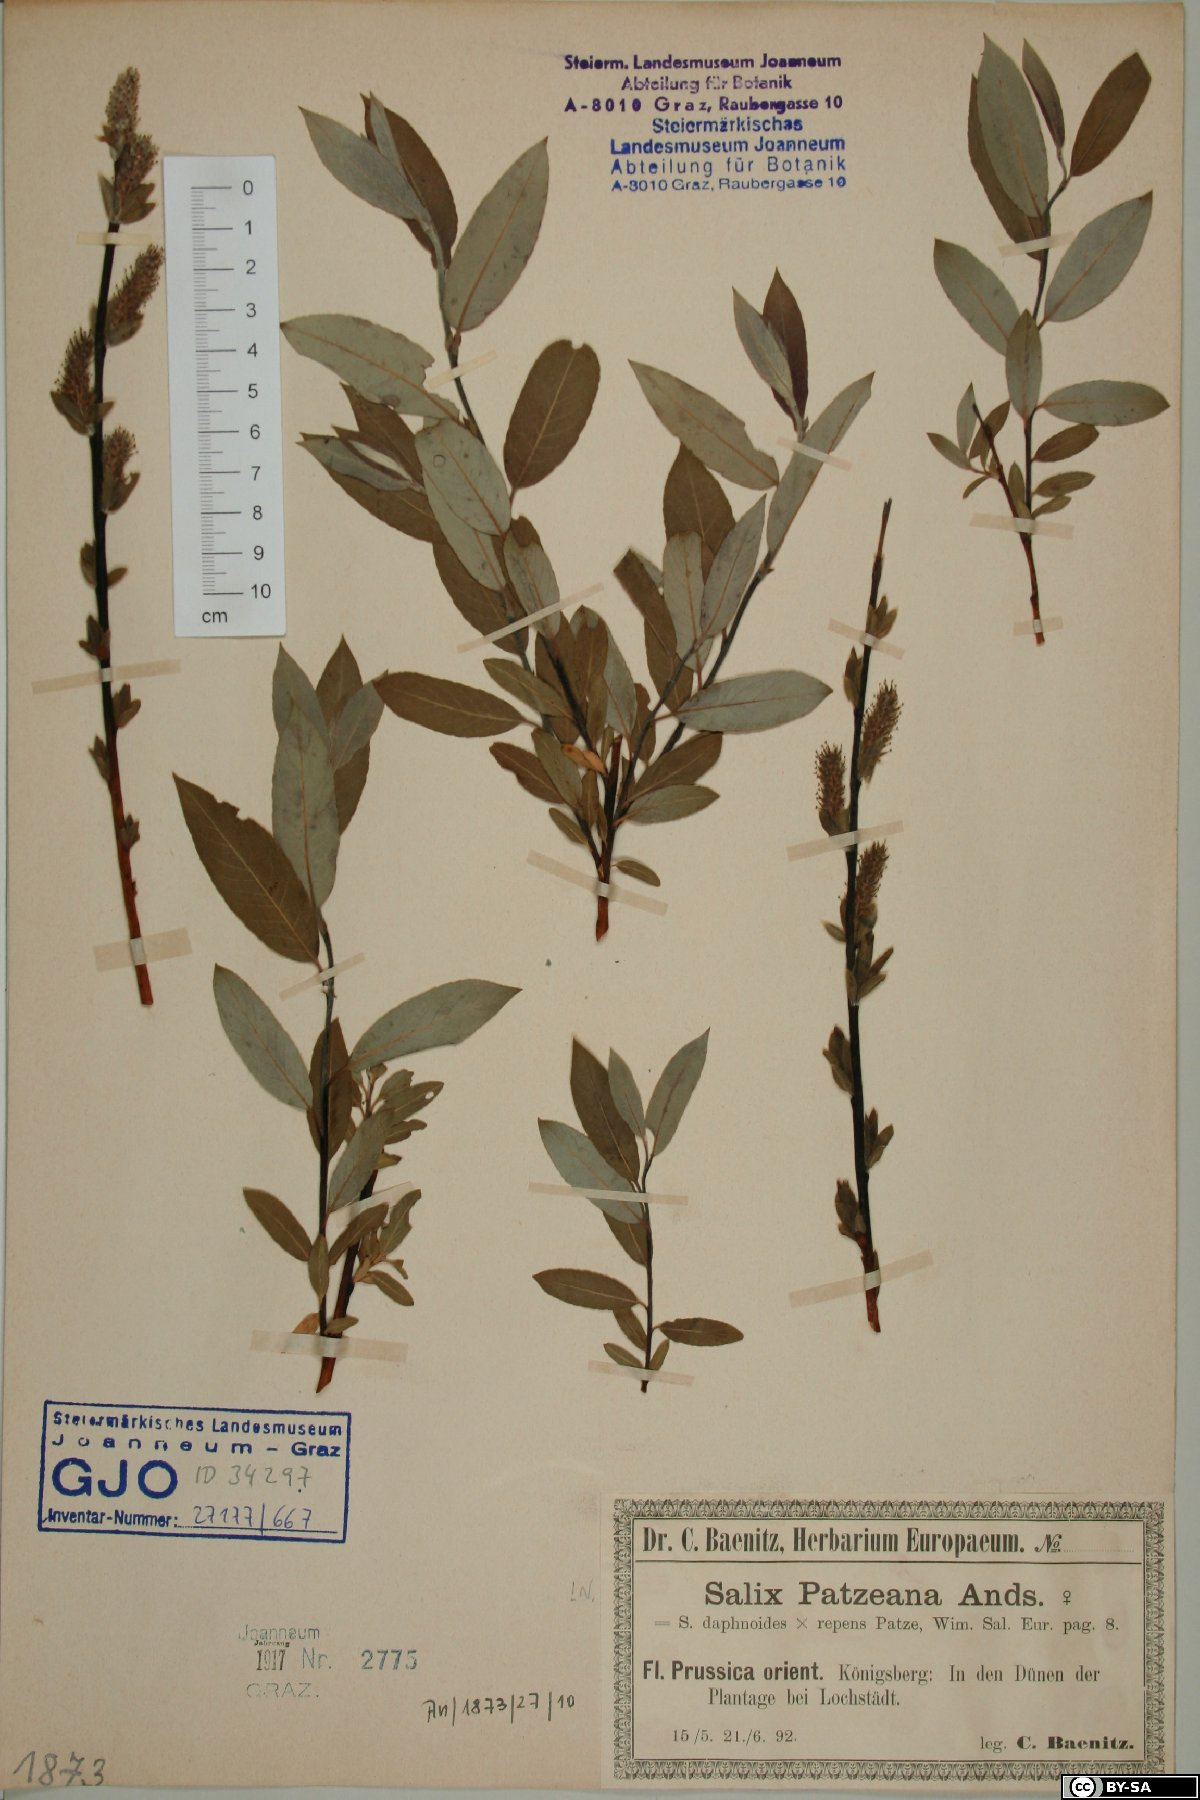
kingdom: Plantae
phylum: Tracheophyta
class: Magnoliopsida
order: Malpighiales
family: Salicaceae
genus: Salix
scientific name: Salix repens
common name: Creeping willow
